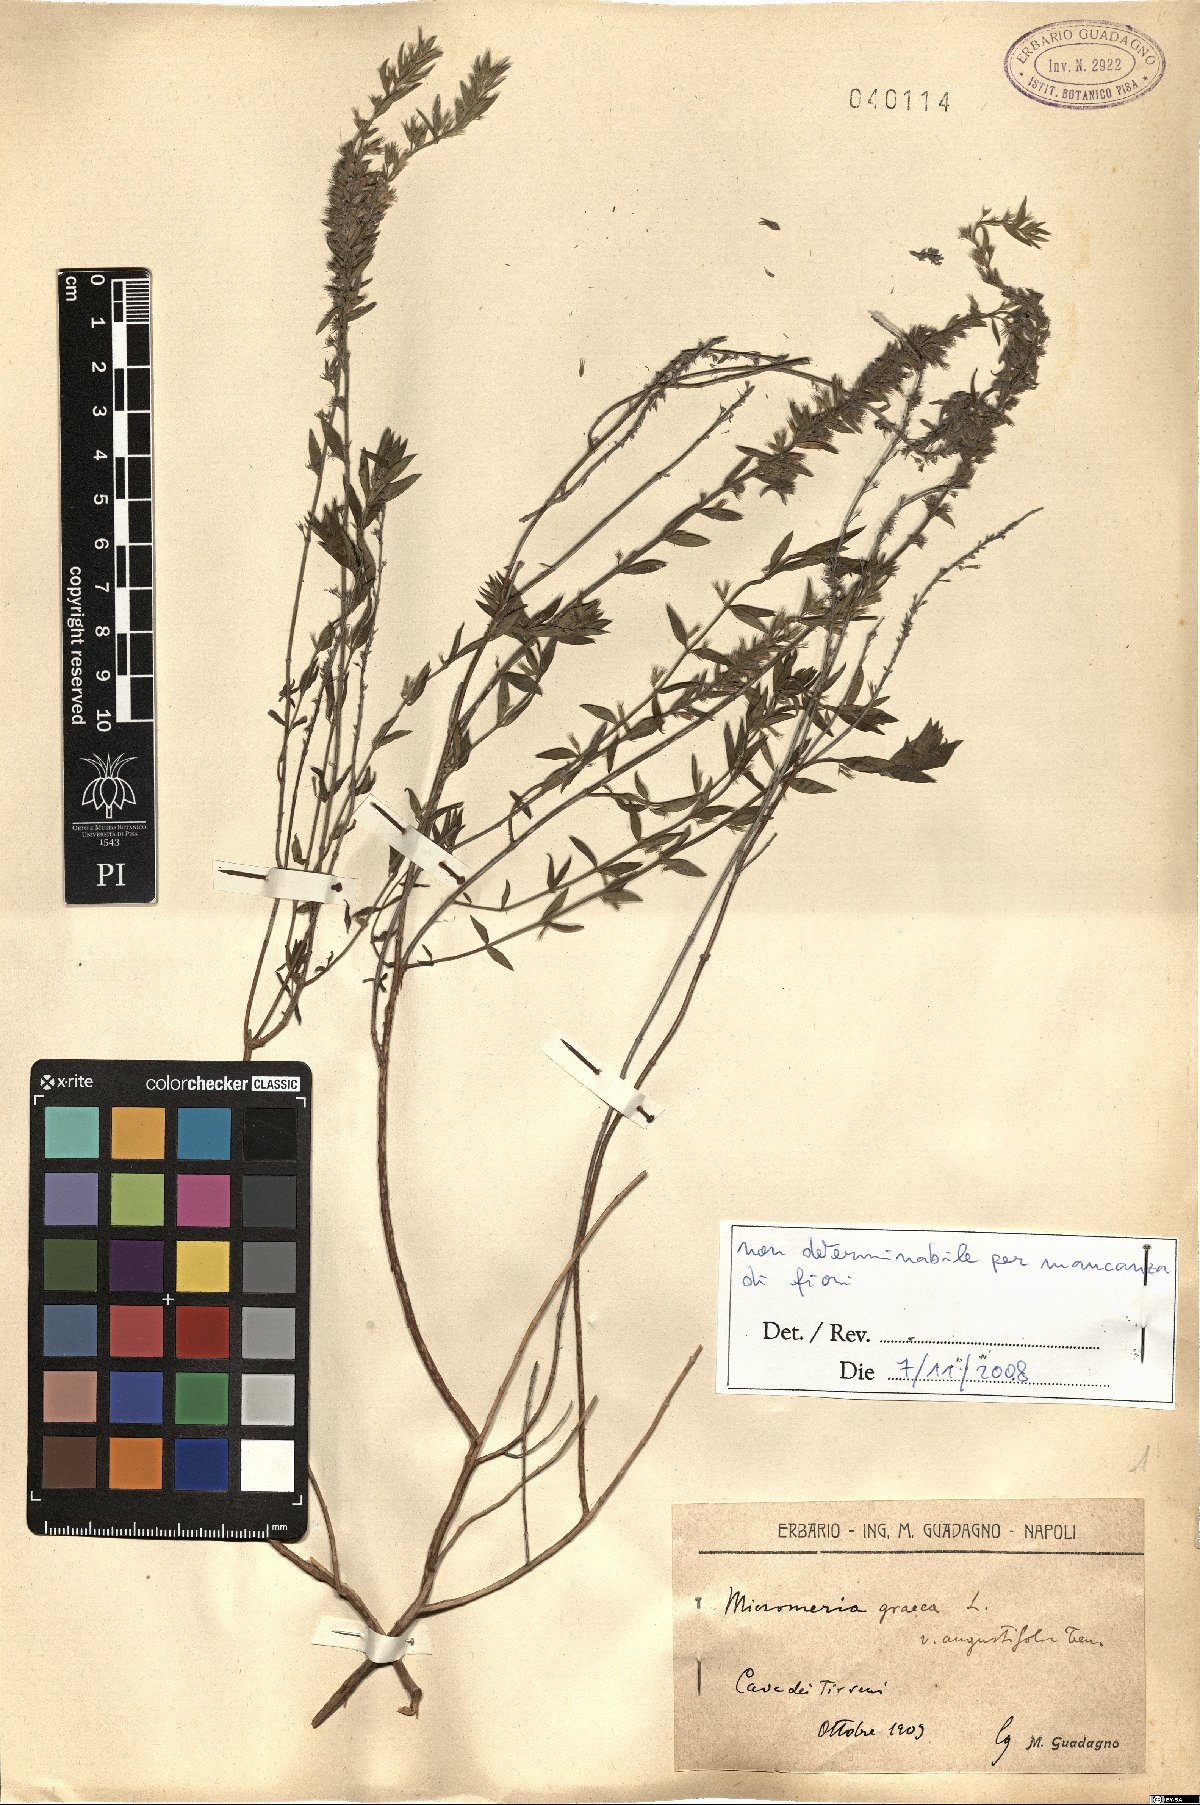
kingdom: Plantae
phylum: Tracheophyta
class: Magnoliopsida
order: Lamiales
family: Lamiaceae
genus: Micromeria
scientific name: Micromeria graeca
